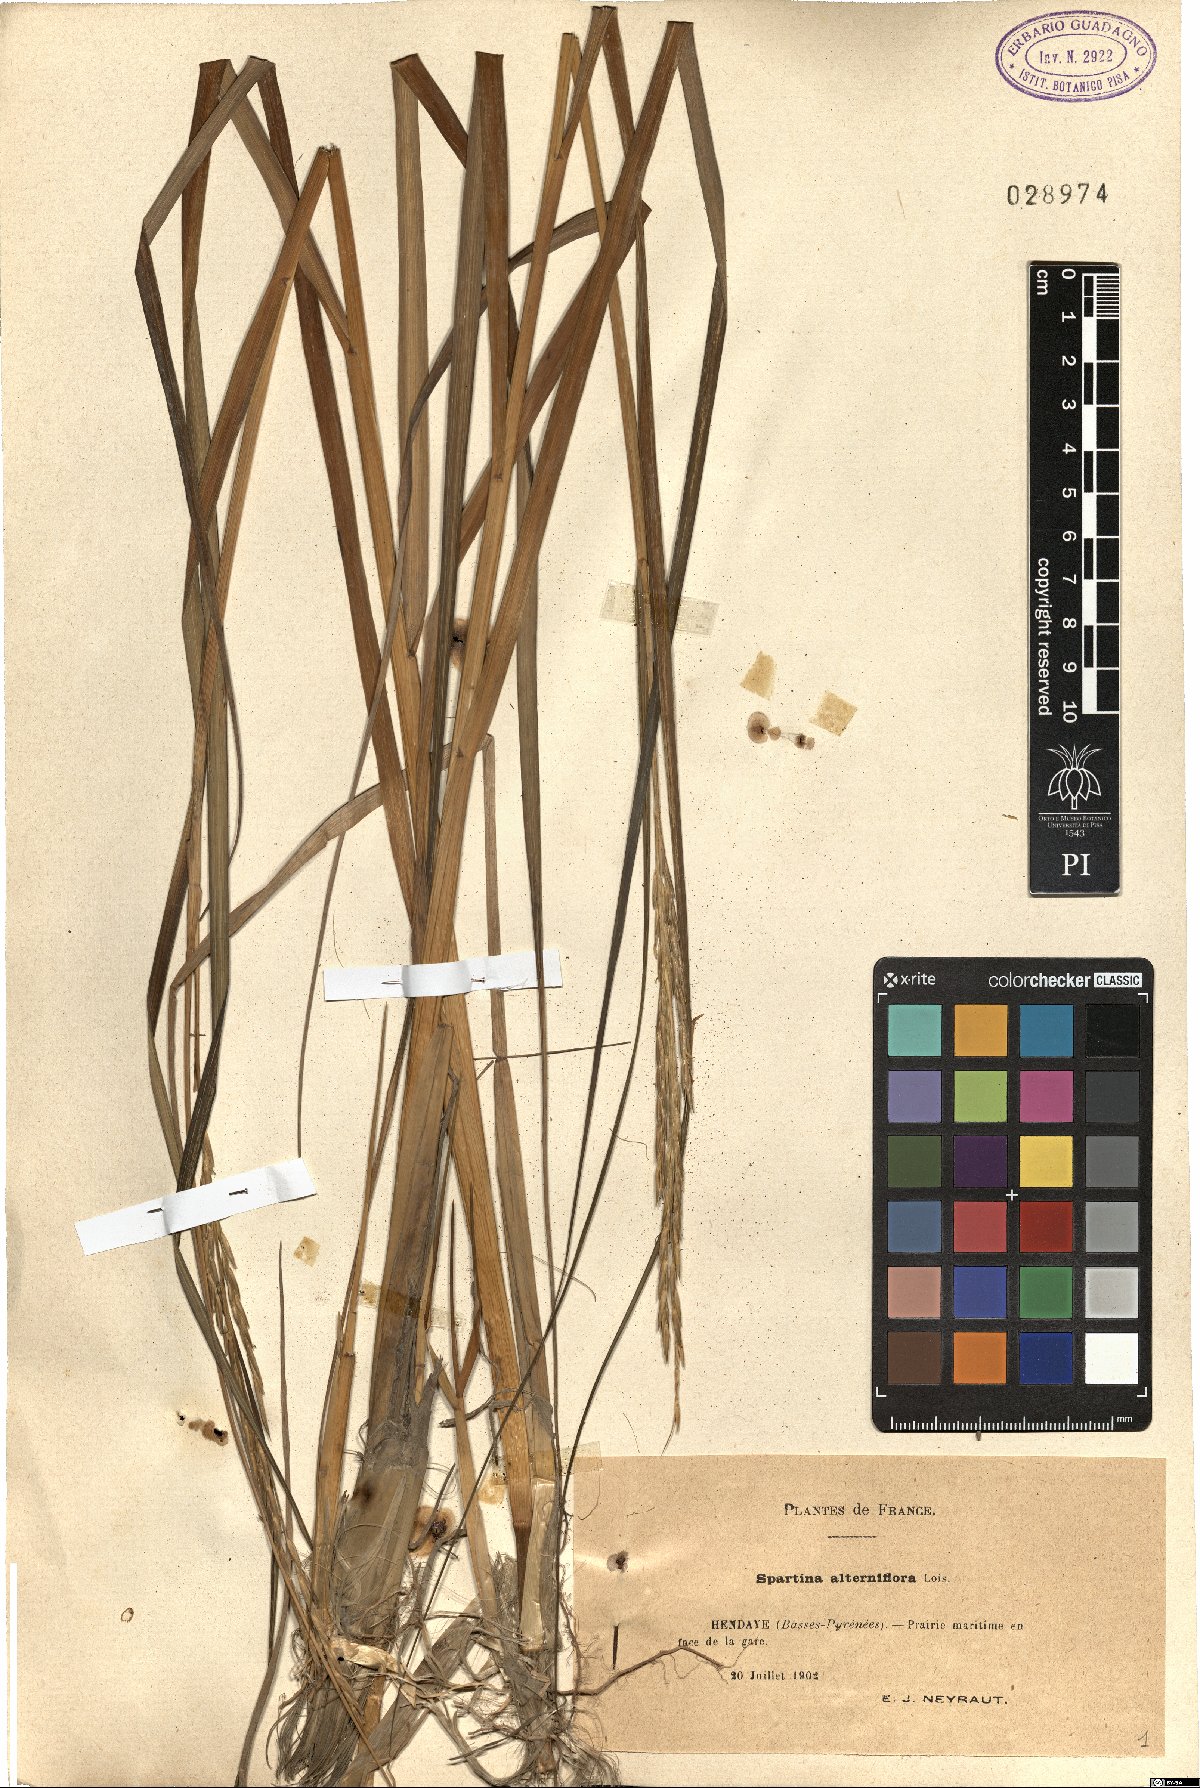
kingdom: Plantae
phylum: Tracheophyta
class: Liliopsida
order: Poales
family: Poaceae
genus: Sporobolus
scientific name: Sporobolus alterniflorus
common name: Atlantic cordgrass
